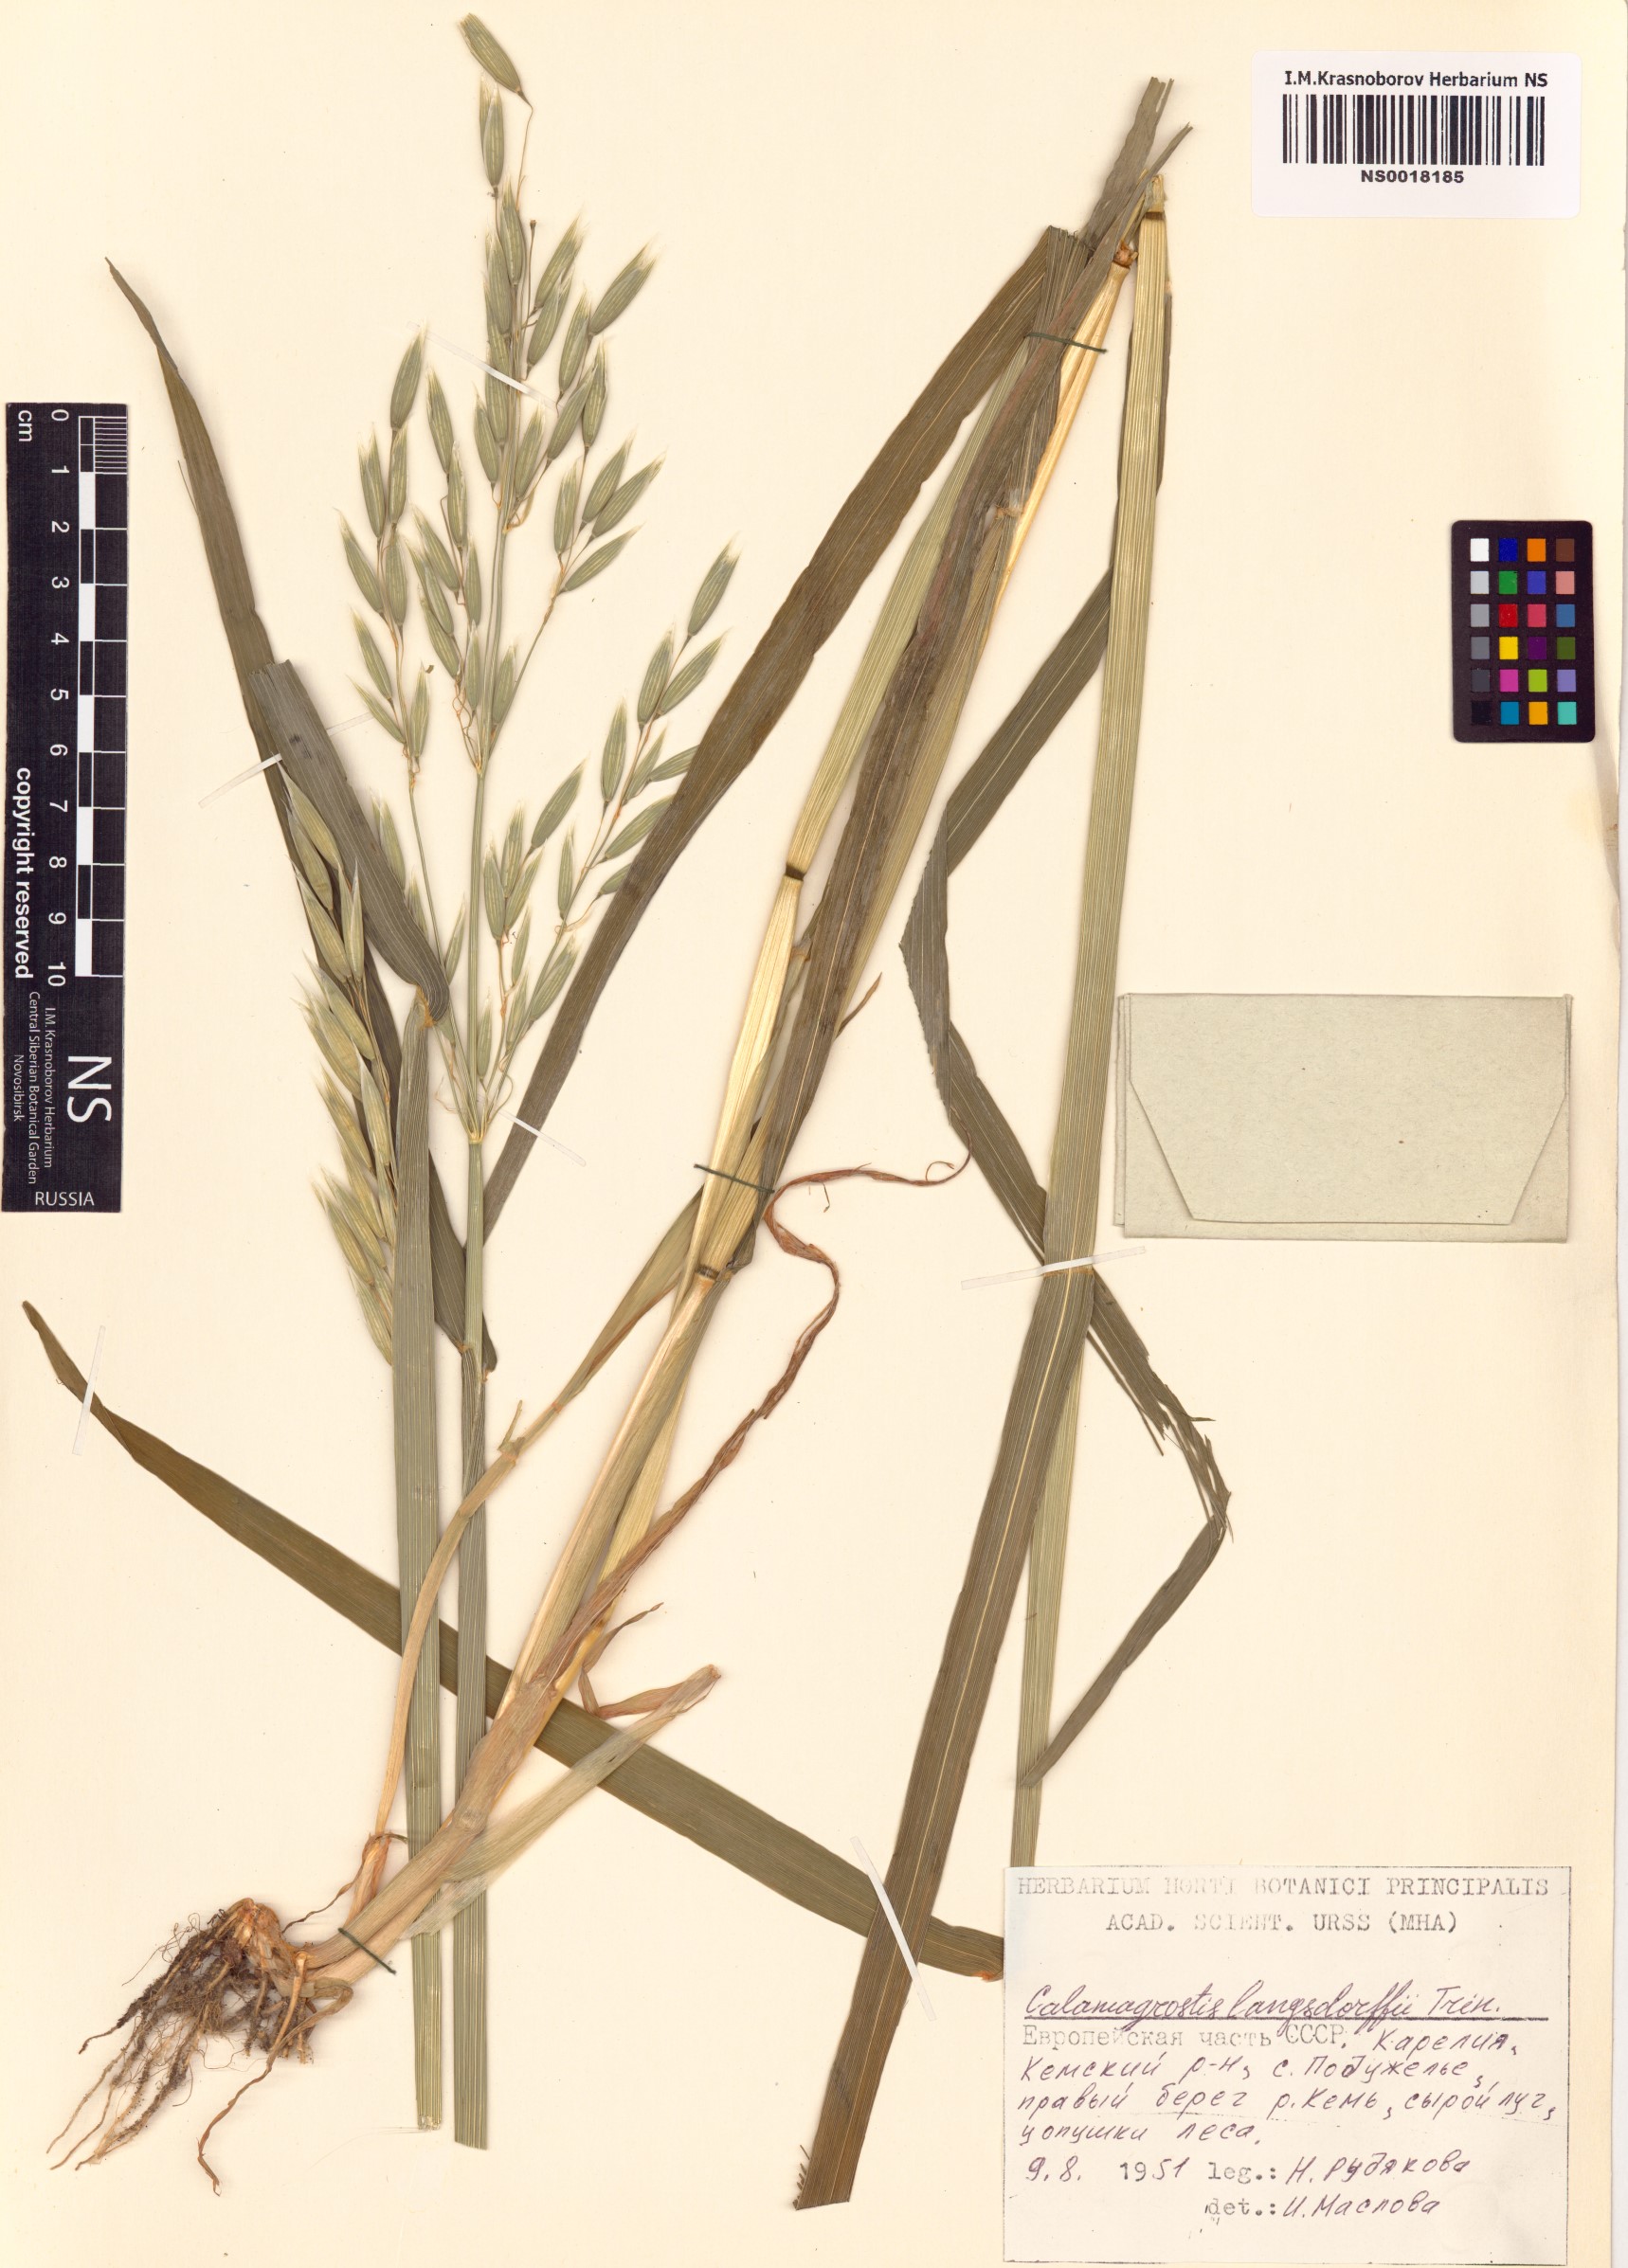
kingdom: Plantae
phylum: Tracheophyta
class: Liliopsida
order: Poales
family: Poaceae
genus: Calamagrostis
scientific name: Calamagrostis purpurea
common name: Scandinavian small-reed
